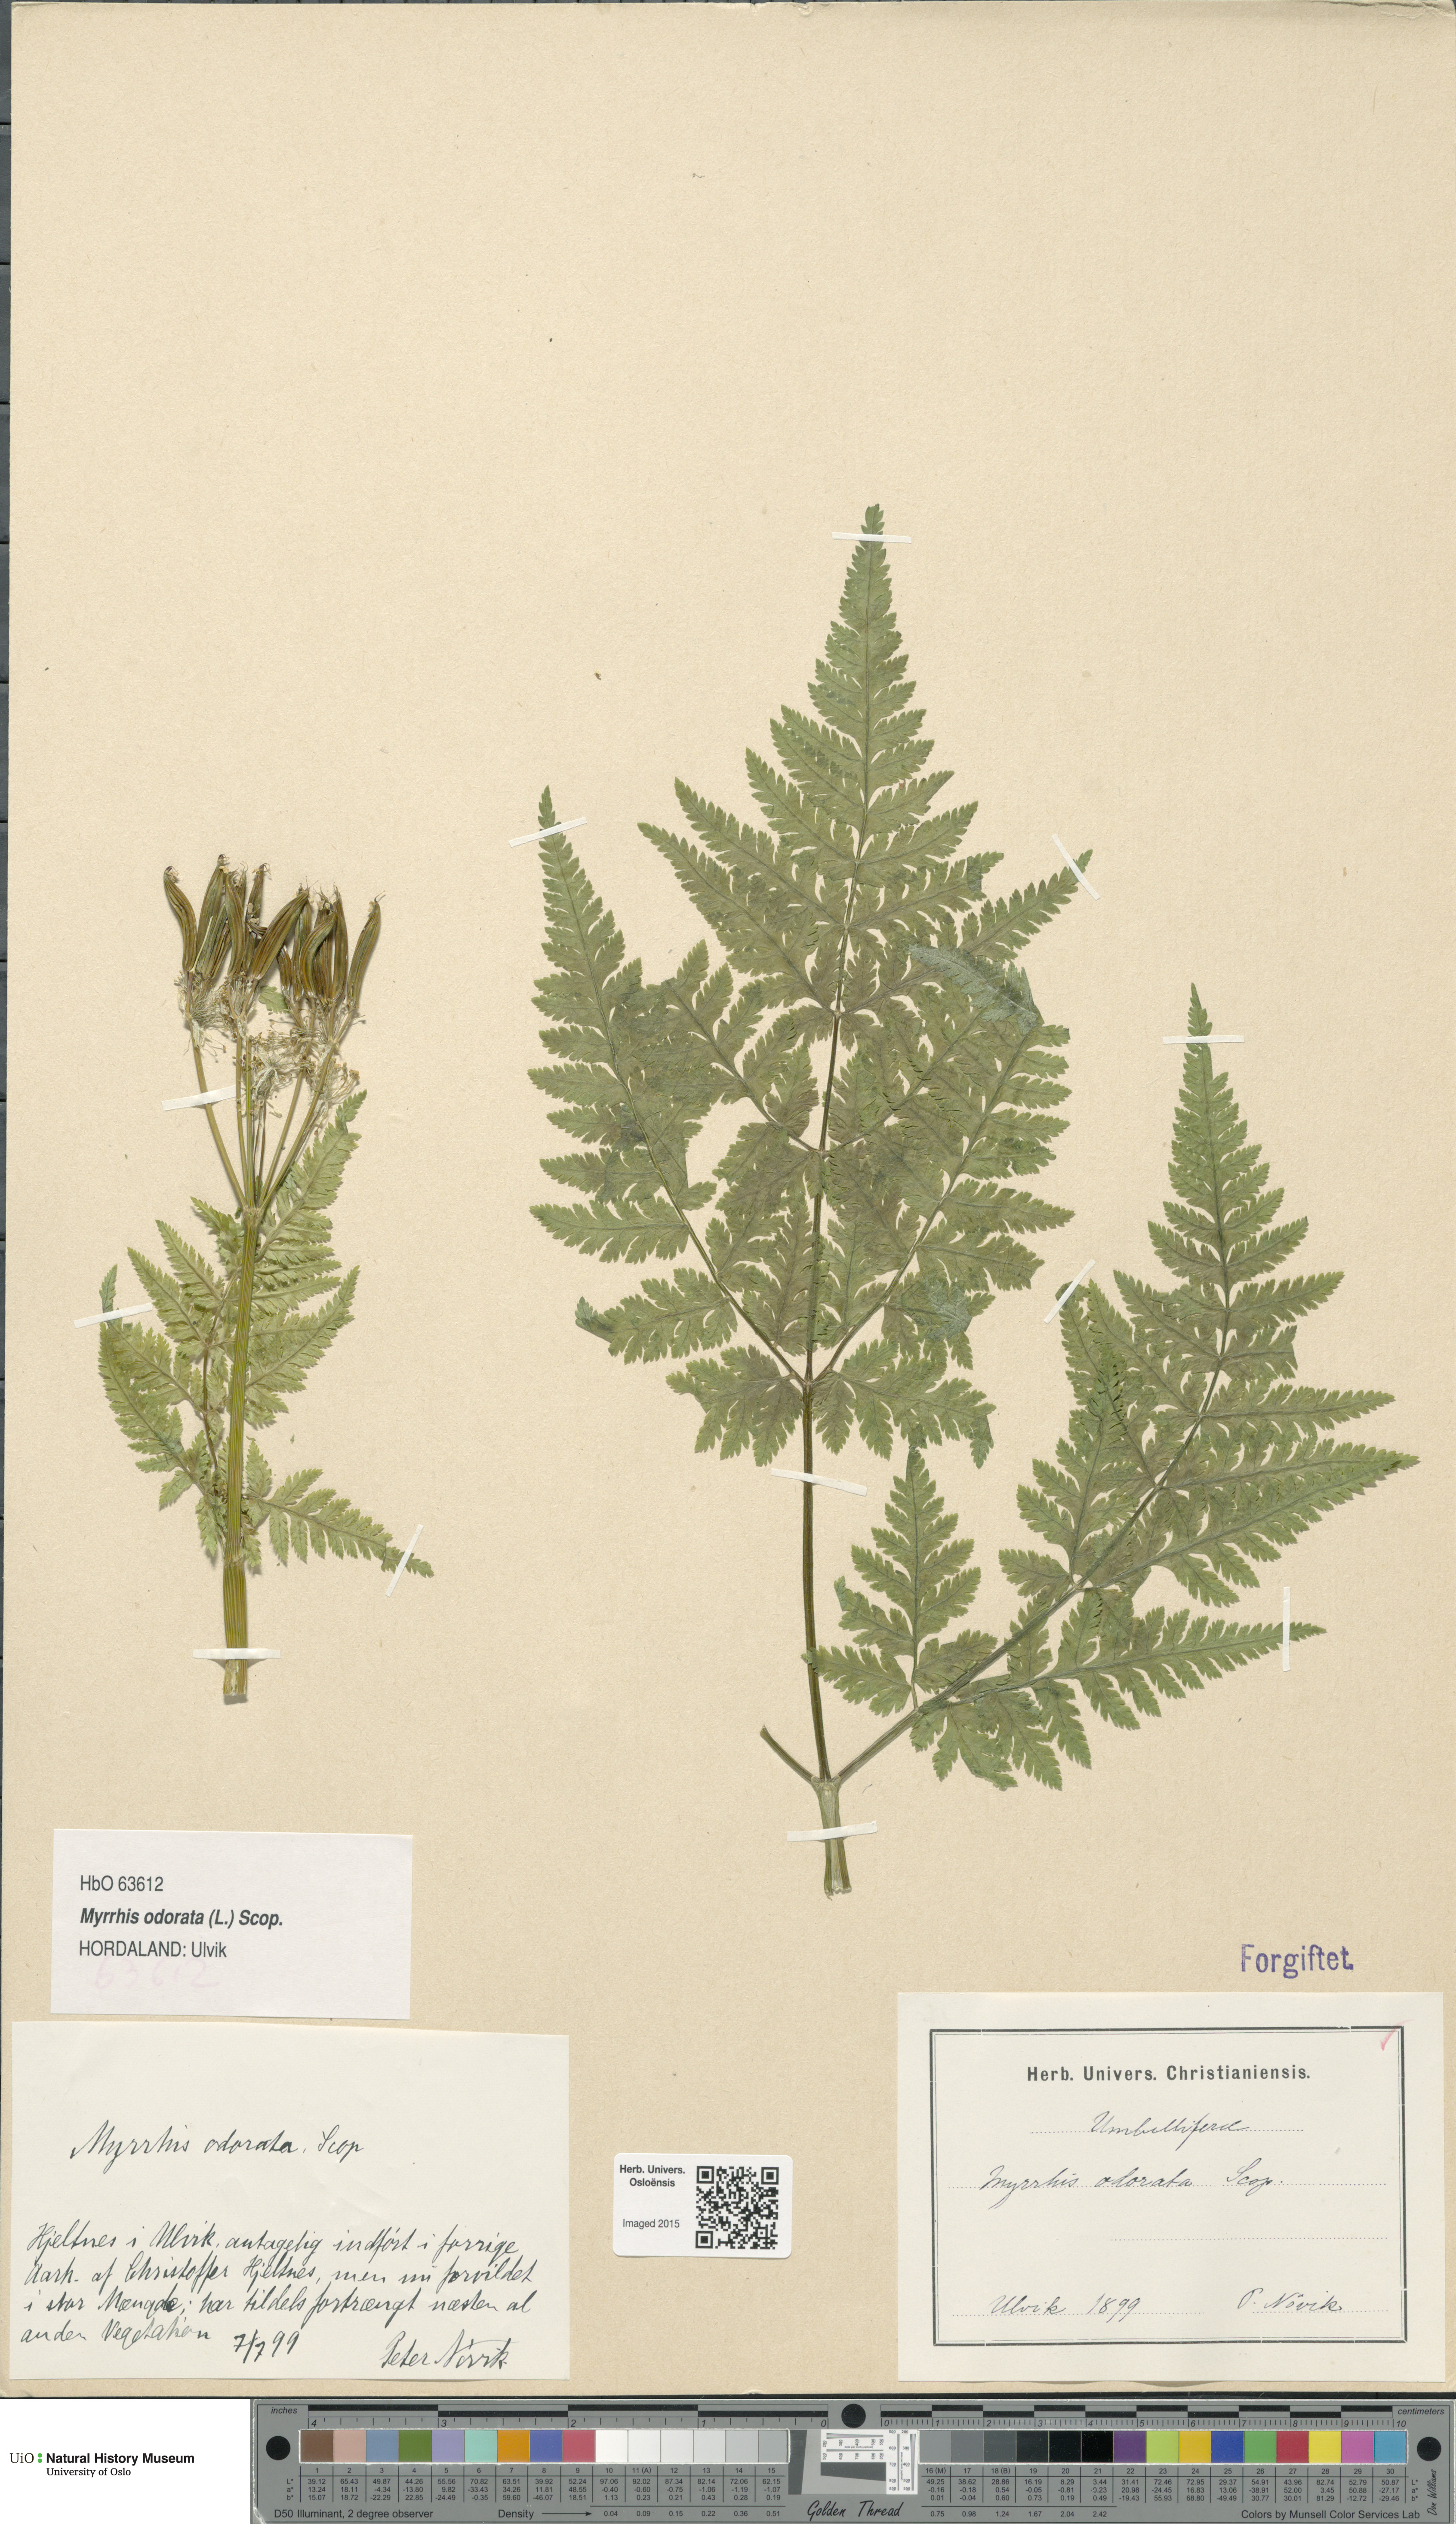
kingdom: Plantae
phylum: Tracheophyta
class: Magnoliopsida
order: Apiales
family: Apiaceae
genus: Myrrhis
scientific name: Myrrhis odorata
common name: Sweet cicely
